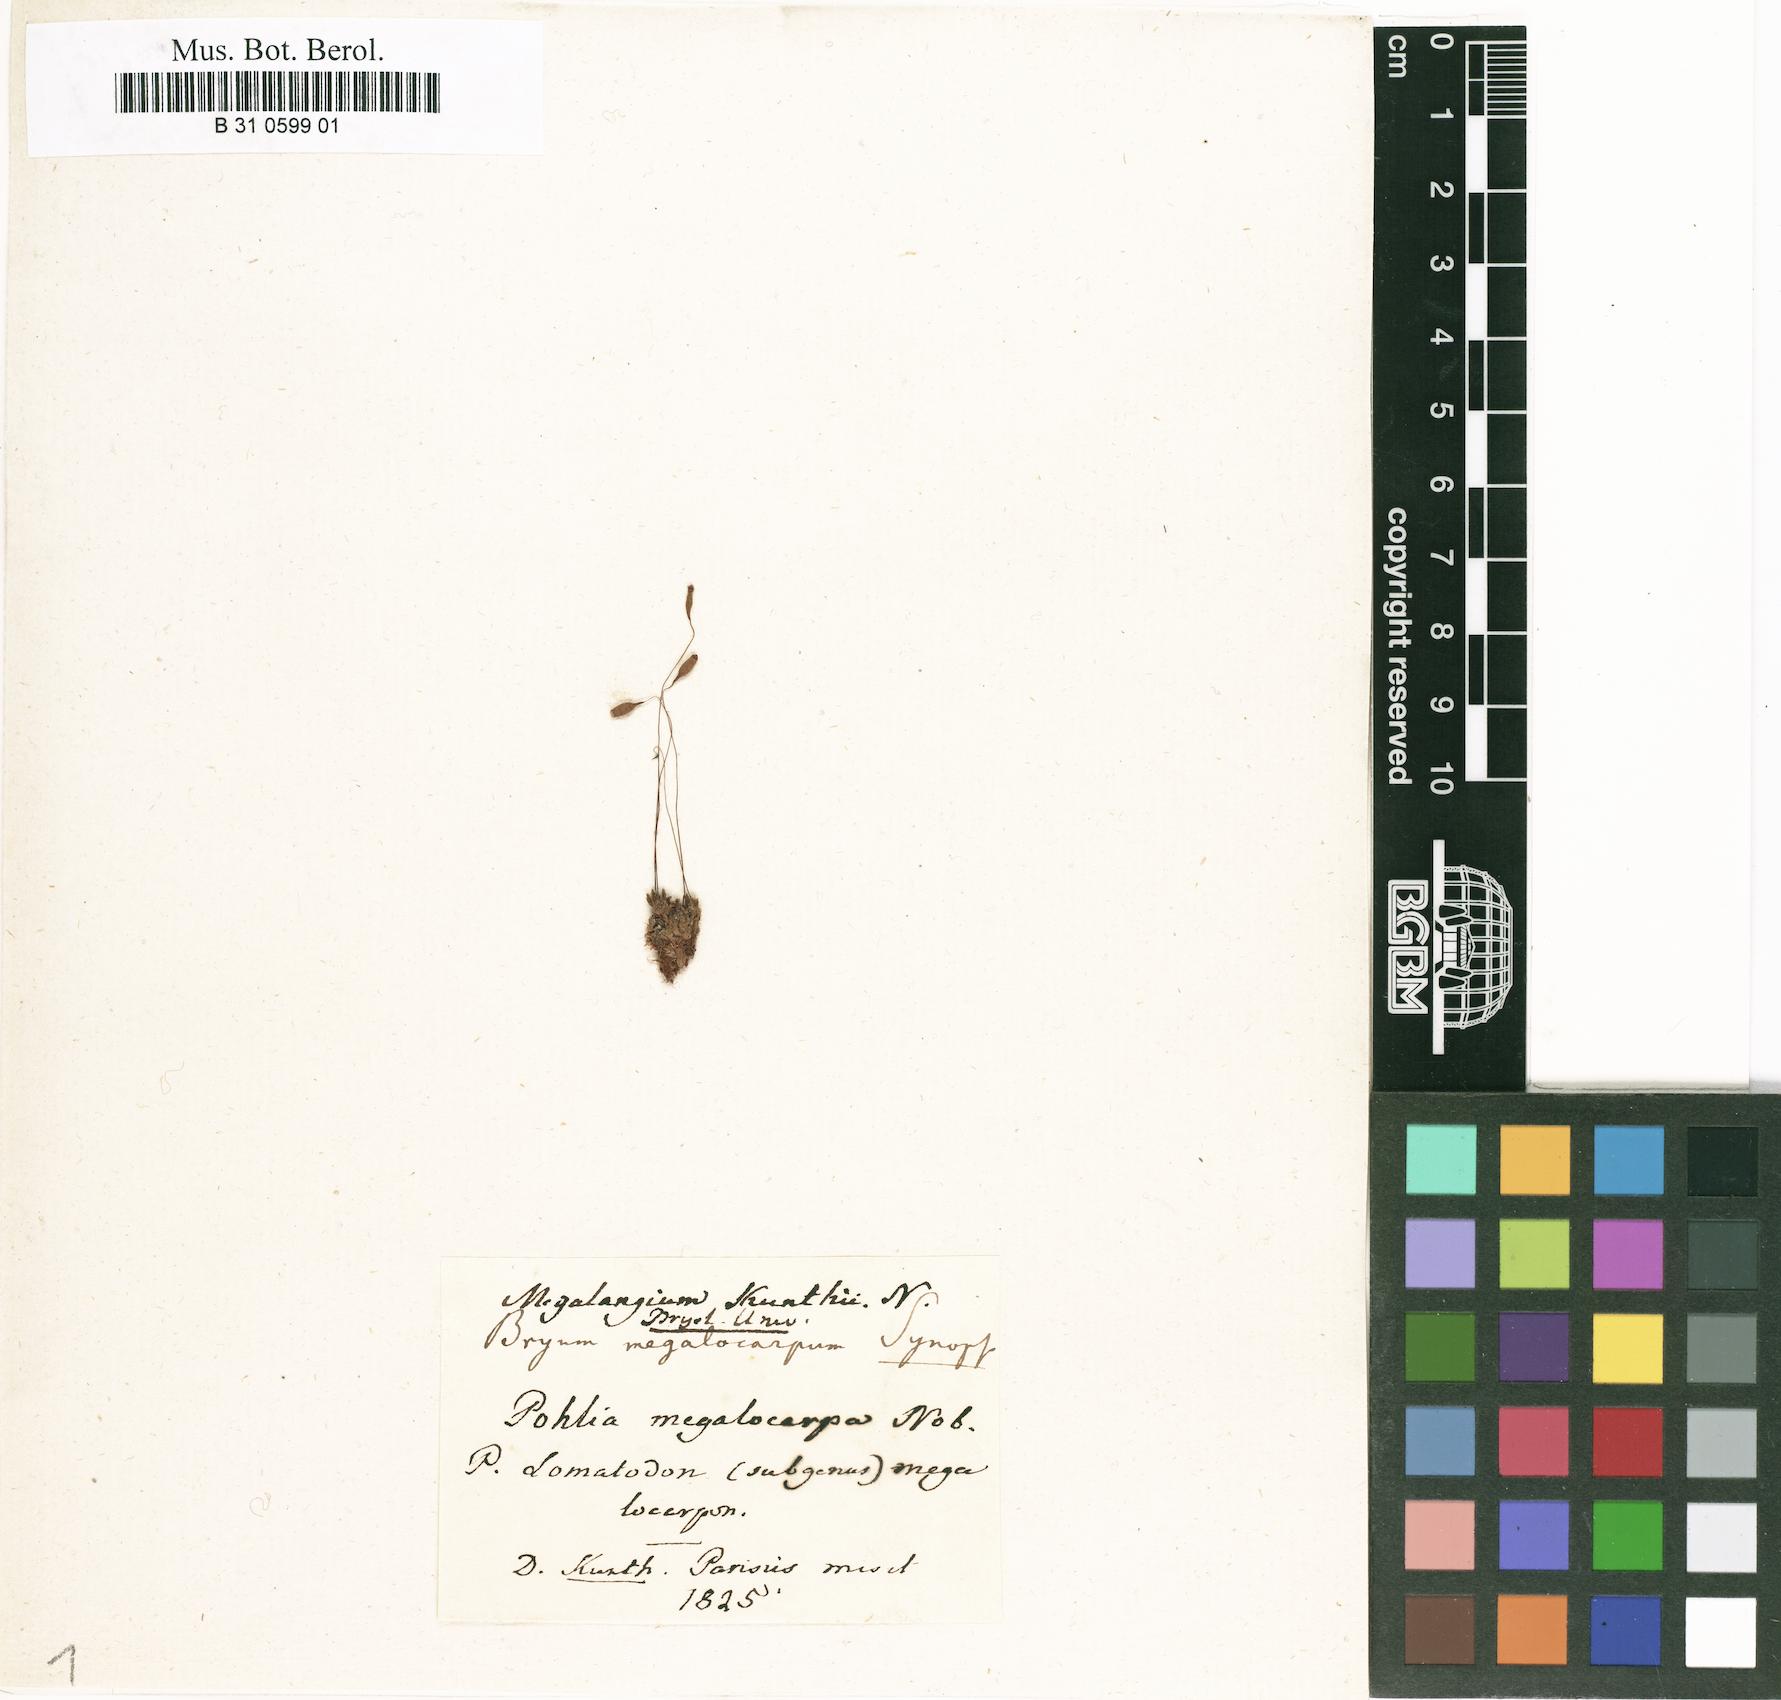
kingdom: Plantae
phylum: Bryophyta
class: Bryopsida
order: Bryales
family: Bryaceae
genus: Acidodontium
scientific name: Acidodontium megalocarpum
